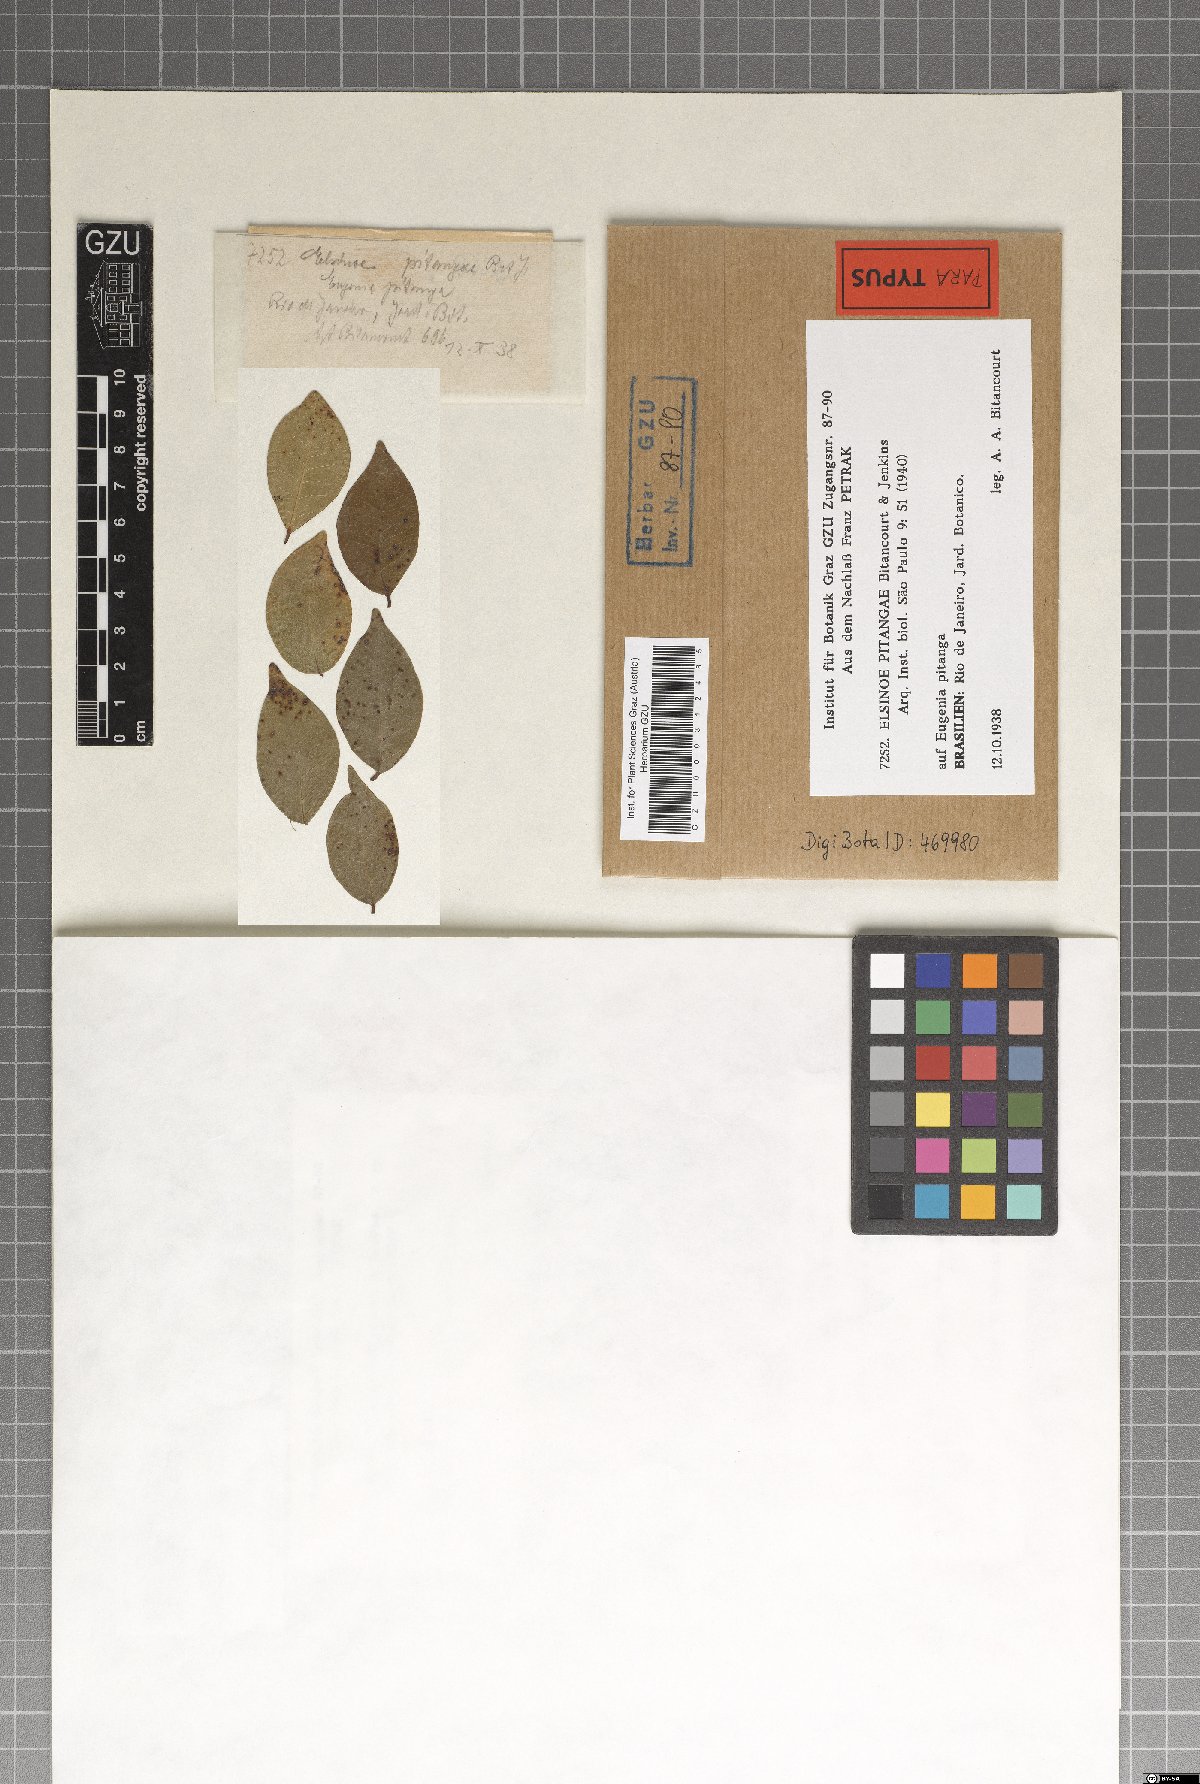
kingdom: Fungi
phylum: Ascomycota
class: Dothideomycetes
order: Myriangiales
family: Elsinoaceae
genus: Elsinoe
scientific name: Elsinoe pitangae
